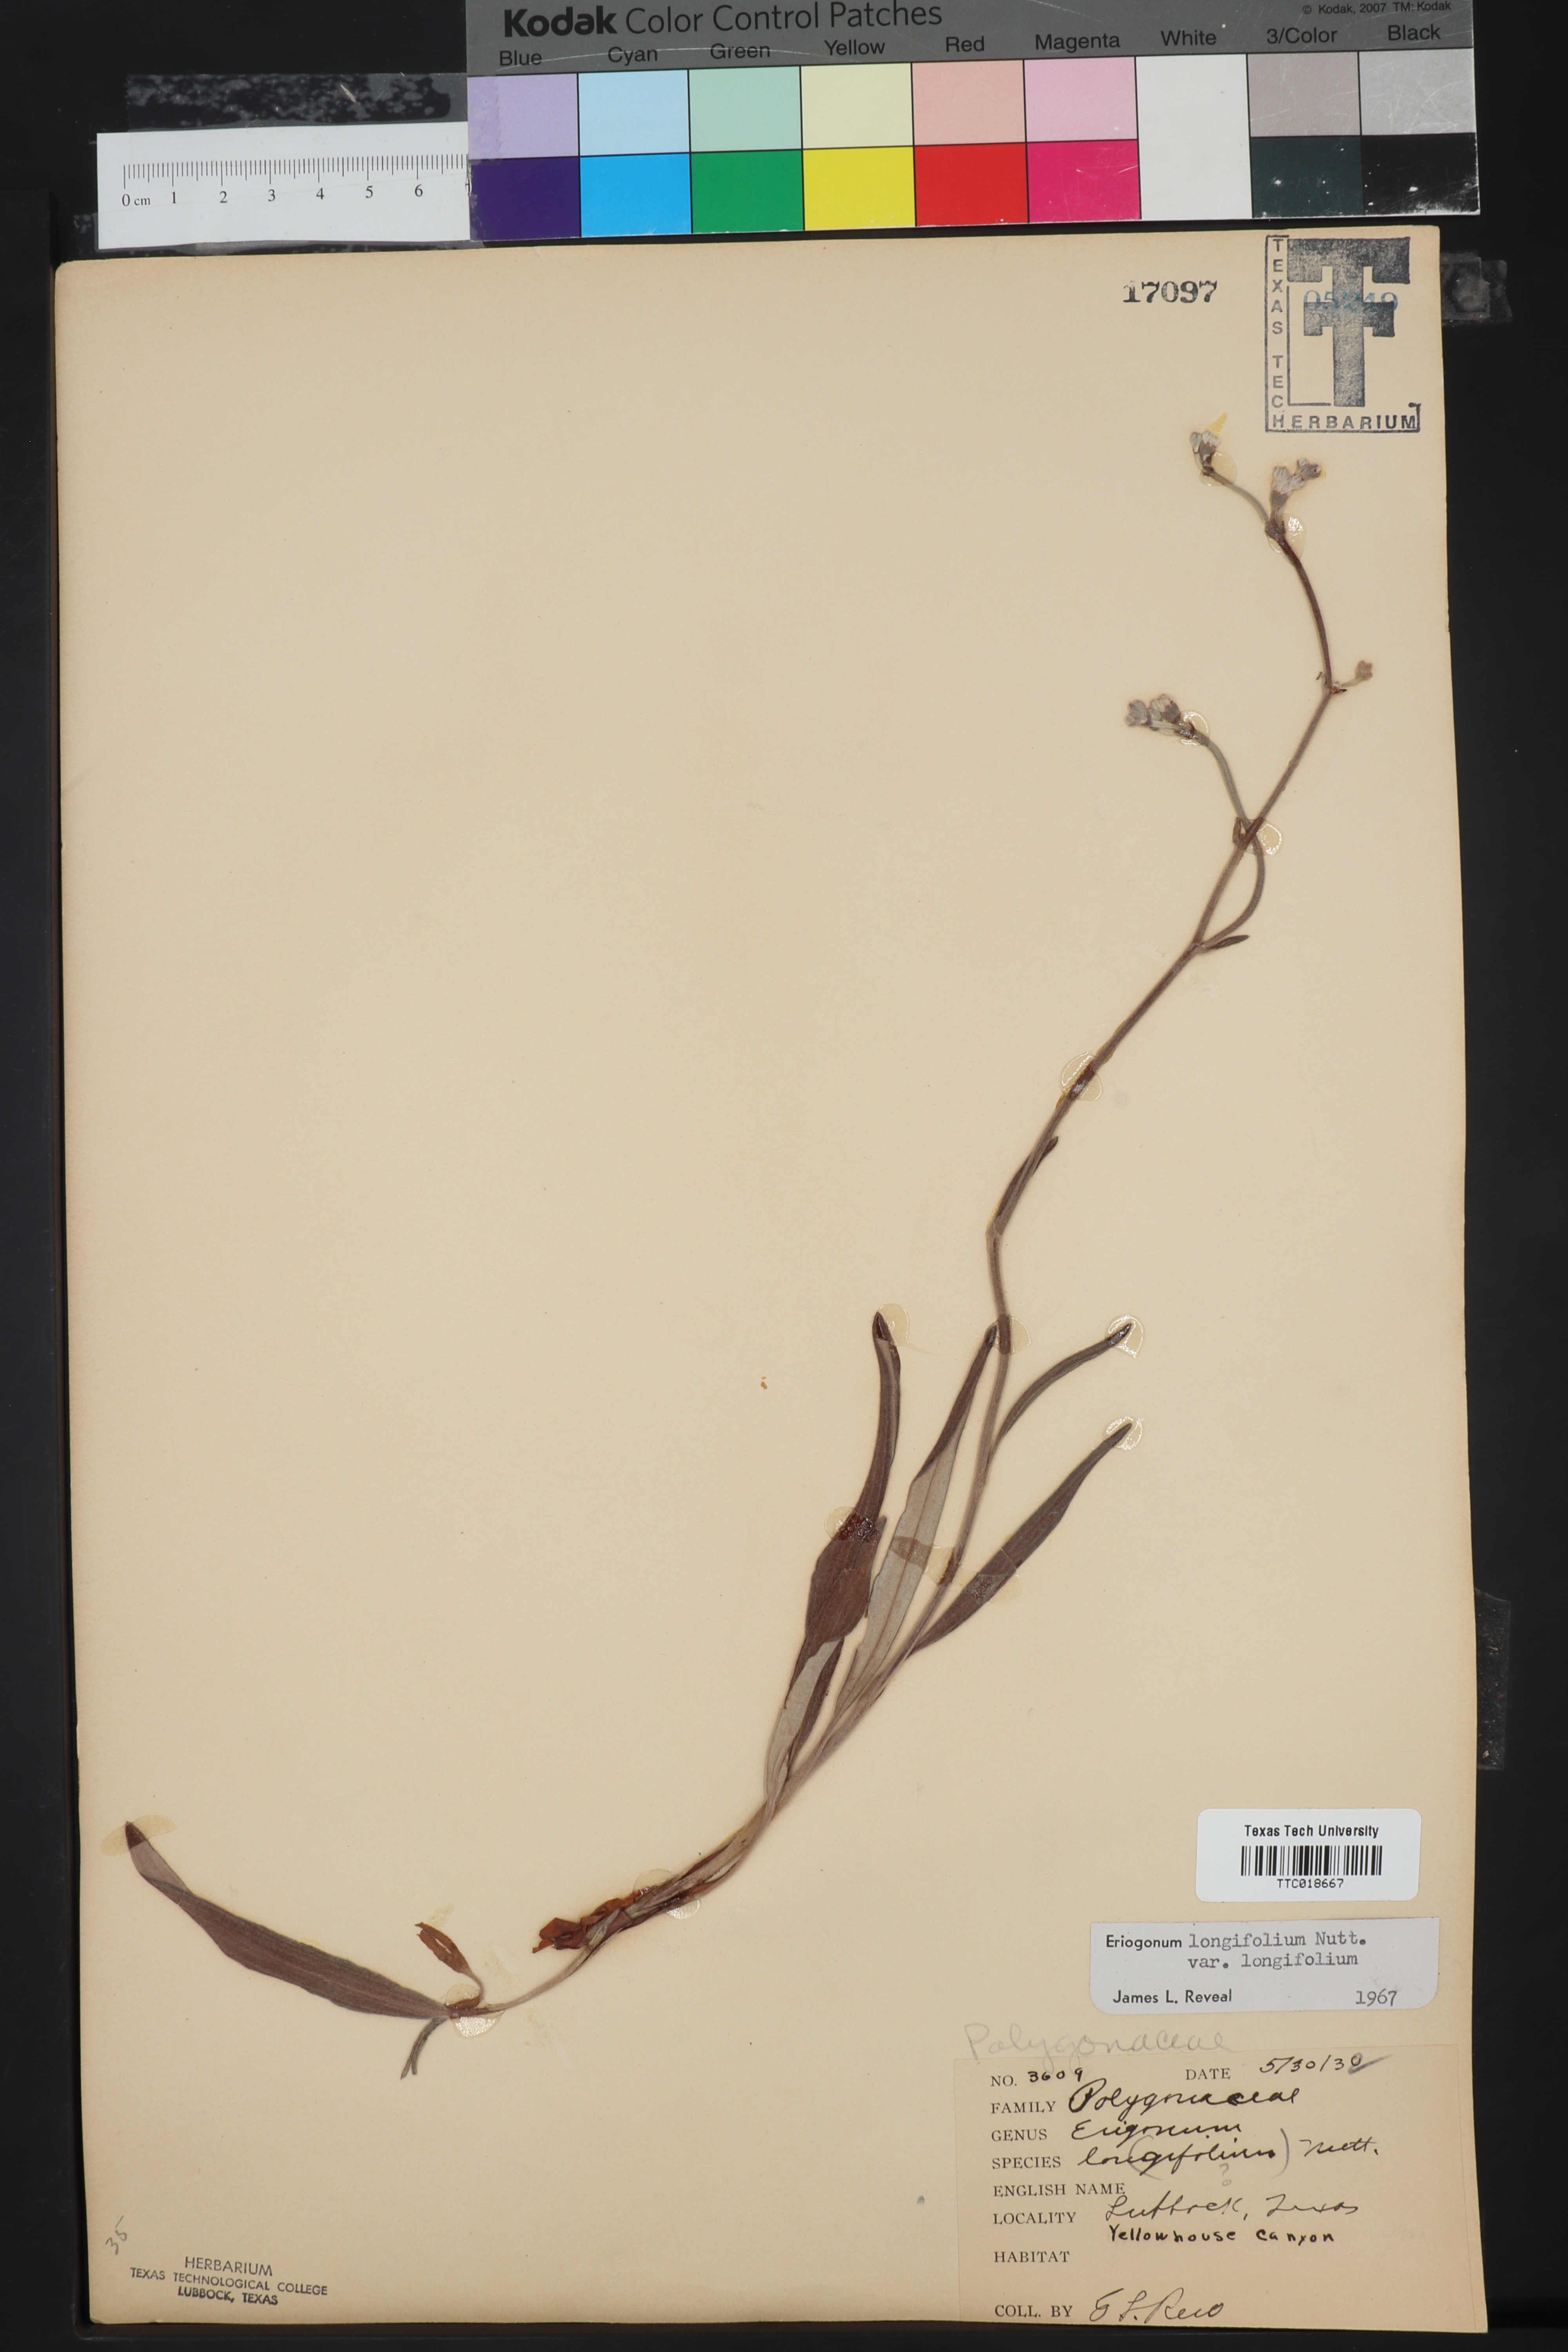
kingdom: Plantae
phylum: Tracheophyta
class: Magnoliopsida
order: Caryophyllales
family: Polygonaceae
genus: Eriogonum
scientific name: Eriogonum longifolium
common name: Longleaf wild buckwheat
